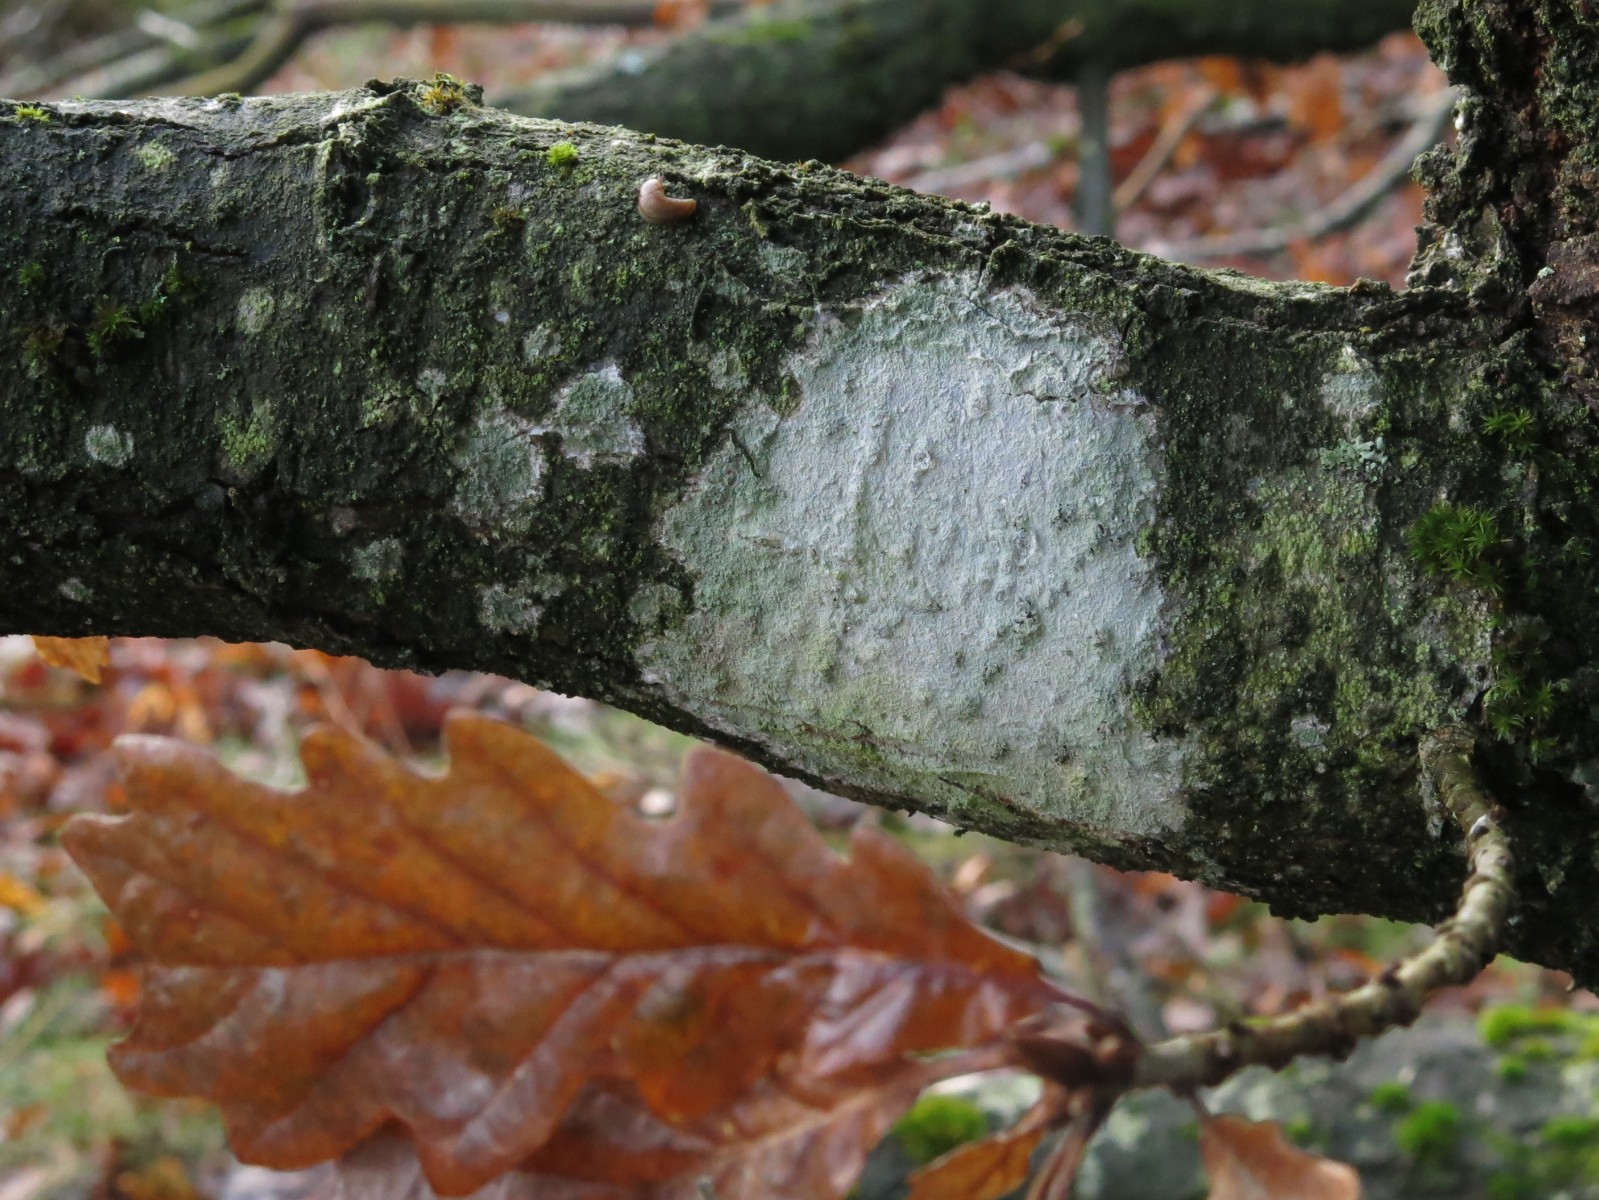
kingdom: Fungi
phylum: Ascomycota
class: Lecanoromycetes
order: Ostropales
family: Phlyctidaceae
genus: Phlyctis
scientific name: Phlyctis argena
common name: almindelig sølvlav
